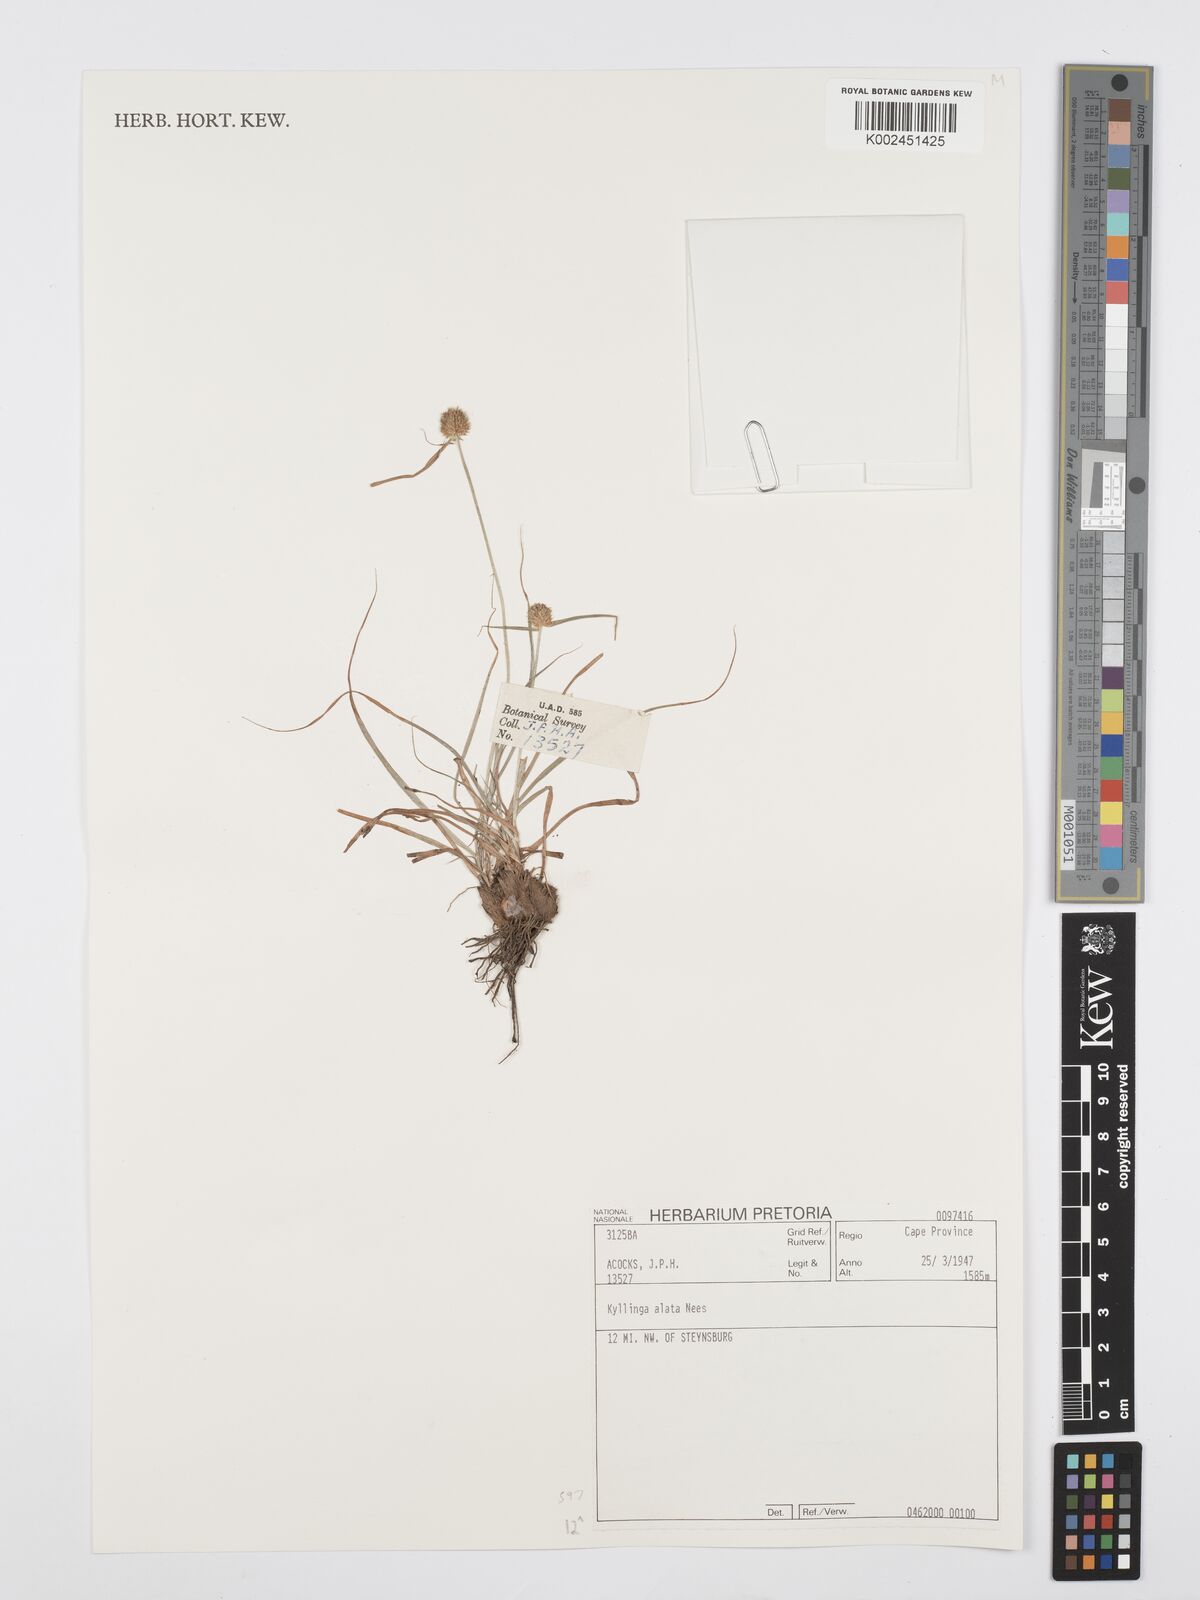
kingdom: Plantae
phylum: Tracheophyta
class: Liliopsida
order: Poales
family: Cyperaceae
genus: Cyperus
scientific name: Cyperus alatus
